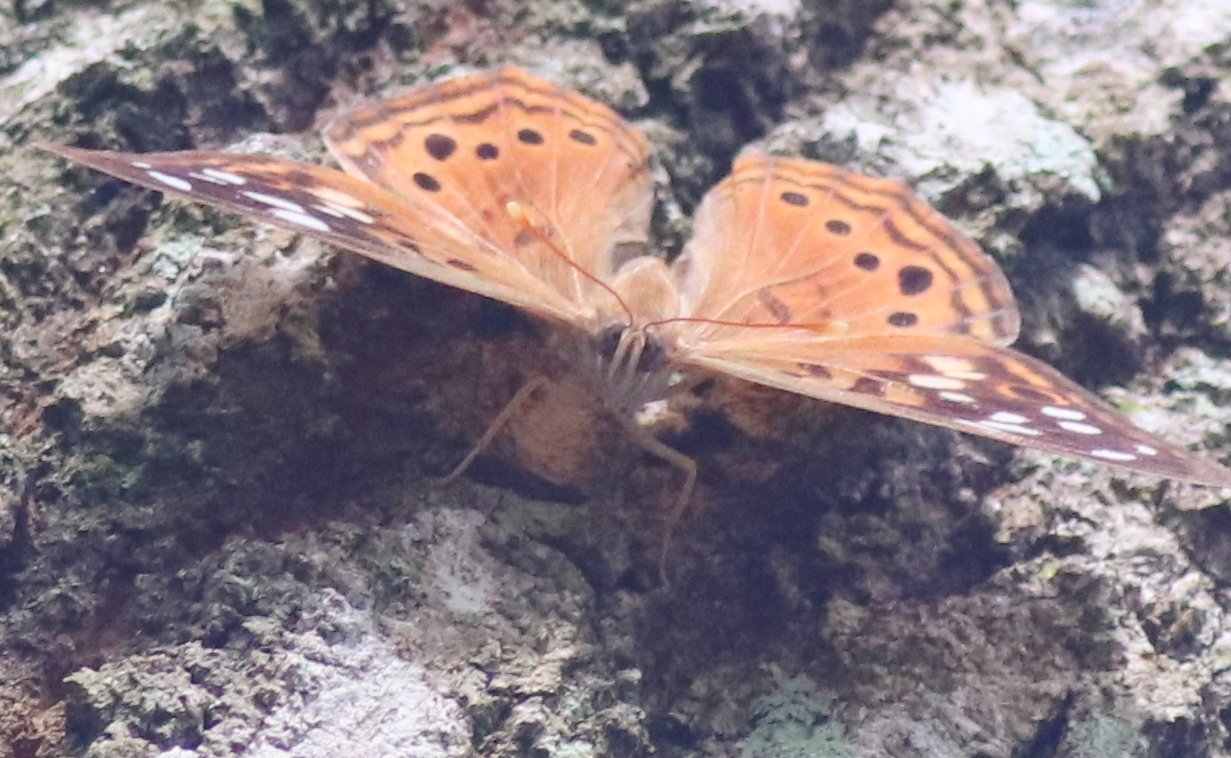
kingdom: Animalia
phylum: Arthropoda
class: Insecta
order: Lepidoptera
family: Nymphalidae
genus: Asterocampa
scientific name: Asterocampa celtis
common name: Hackberry Emperor
